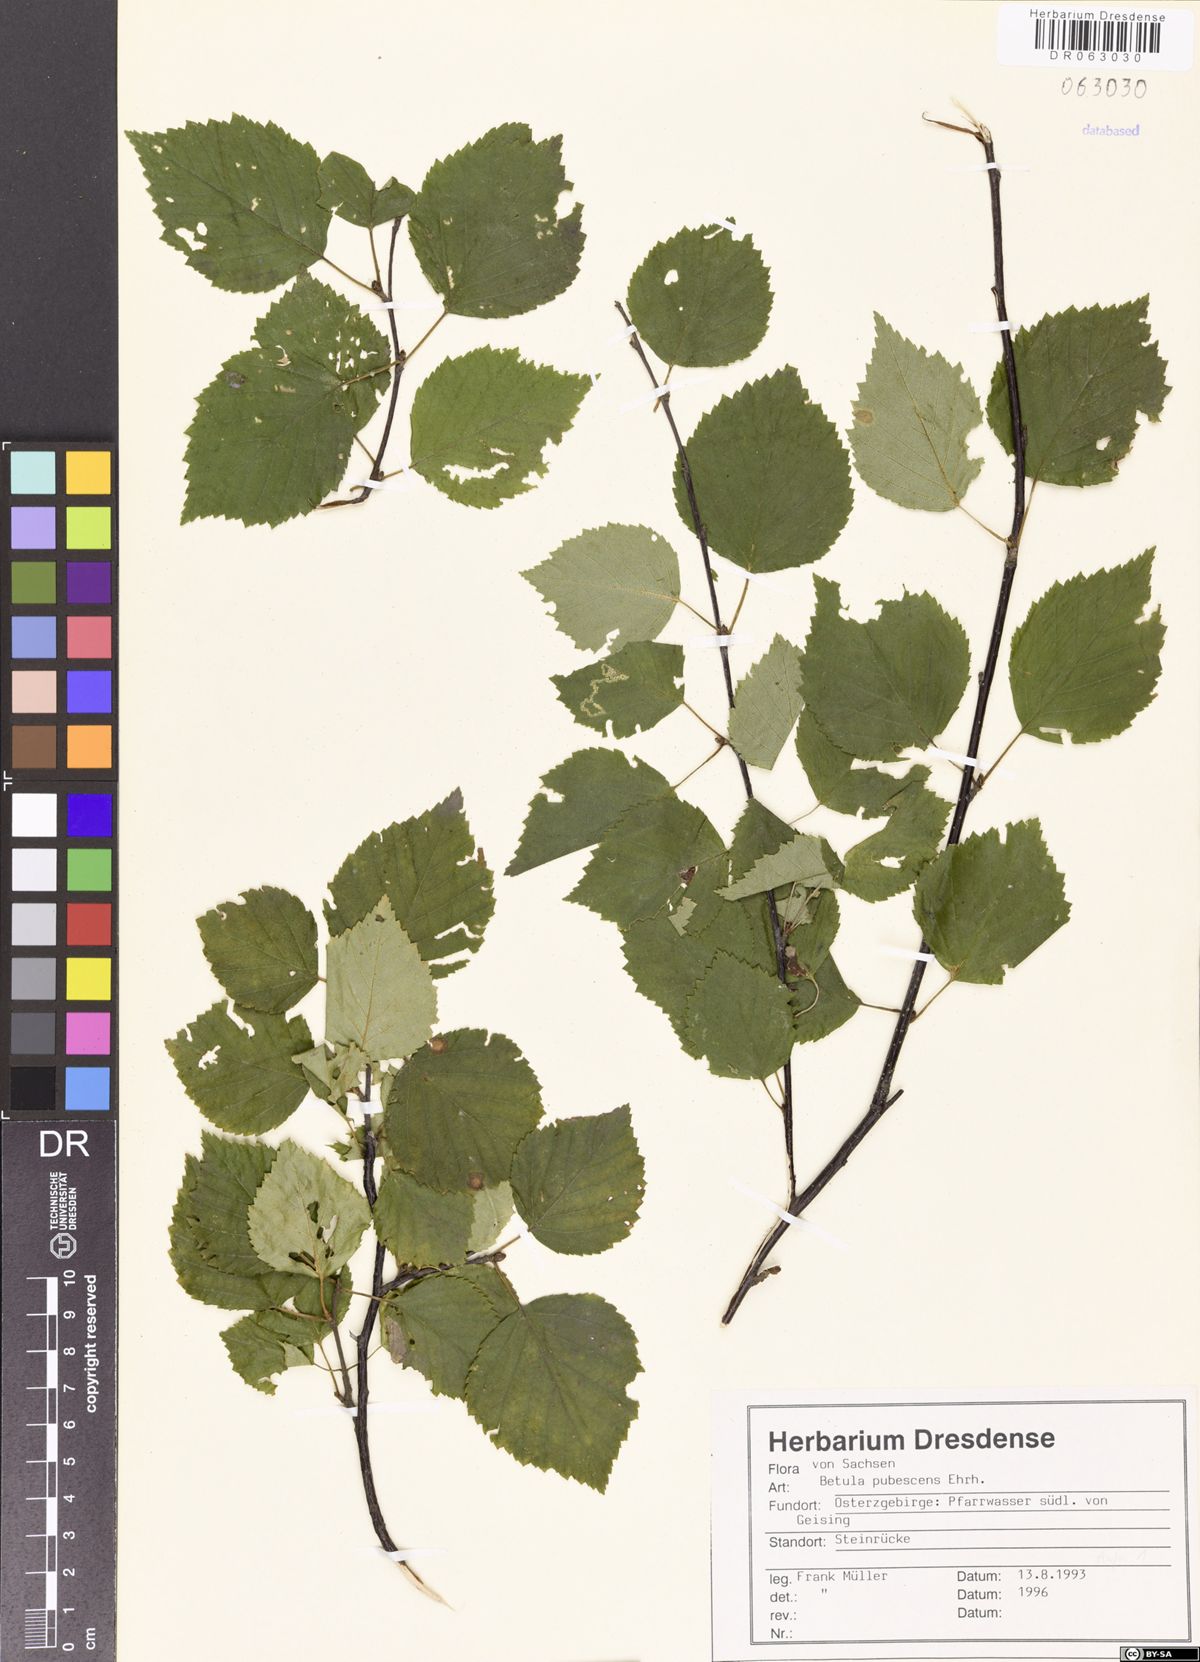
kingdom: Plantae
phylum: Tracheophyta
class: Magnoliopsida
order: Fagales
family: Betulaceae
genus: Betula
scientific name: Betula pubescens
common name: Downy birch
